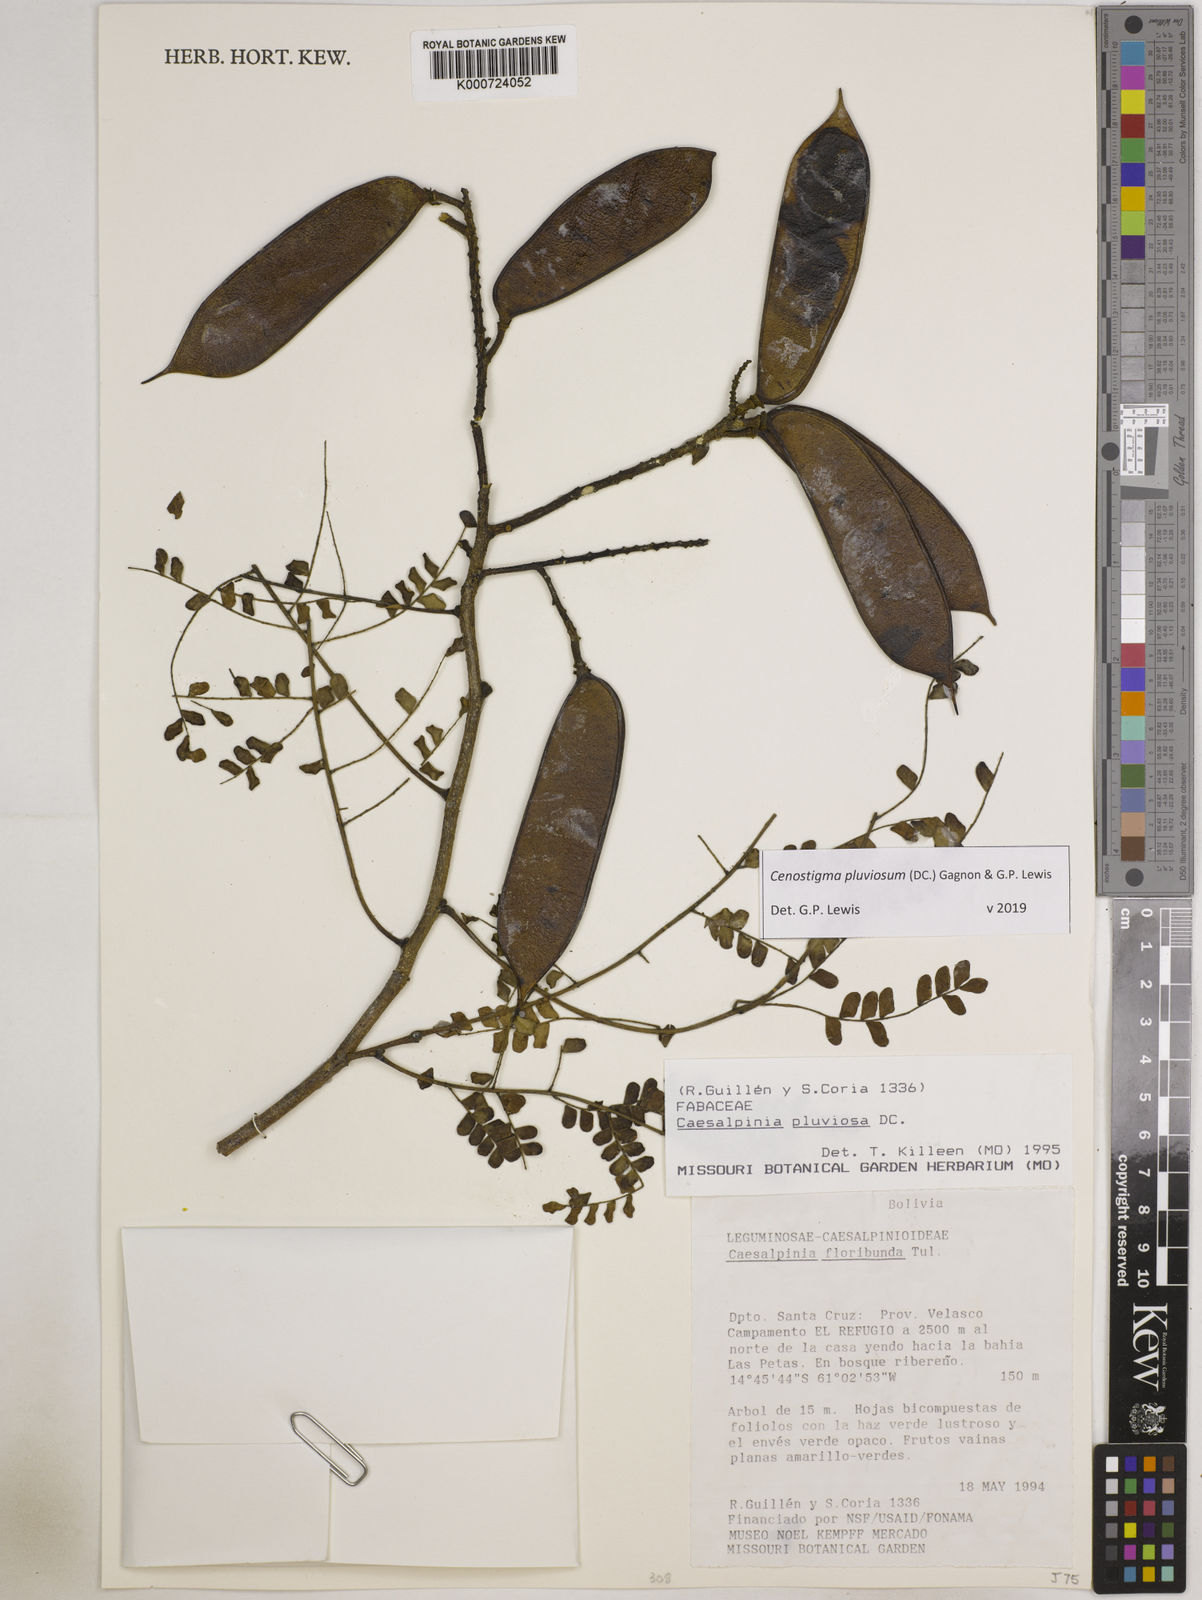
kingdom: Plantae
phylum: Tracheophyta
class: Magnoliopsida
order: Fabales
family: Fabaceae
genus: Cenostigma
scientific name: Cenostigma pluviosum
